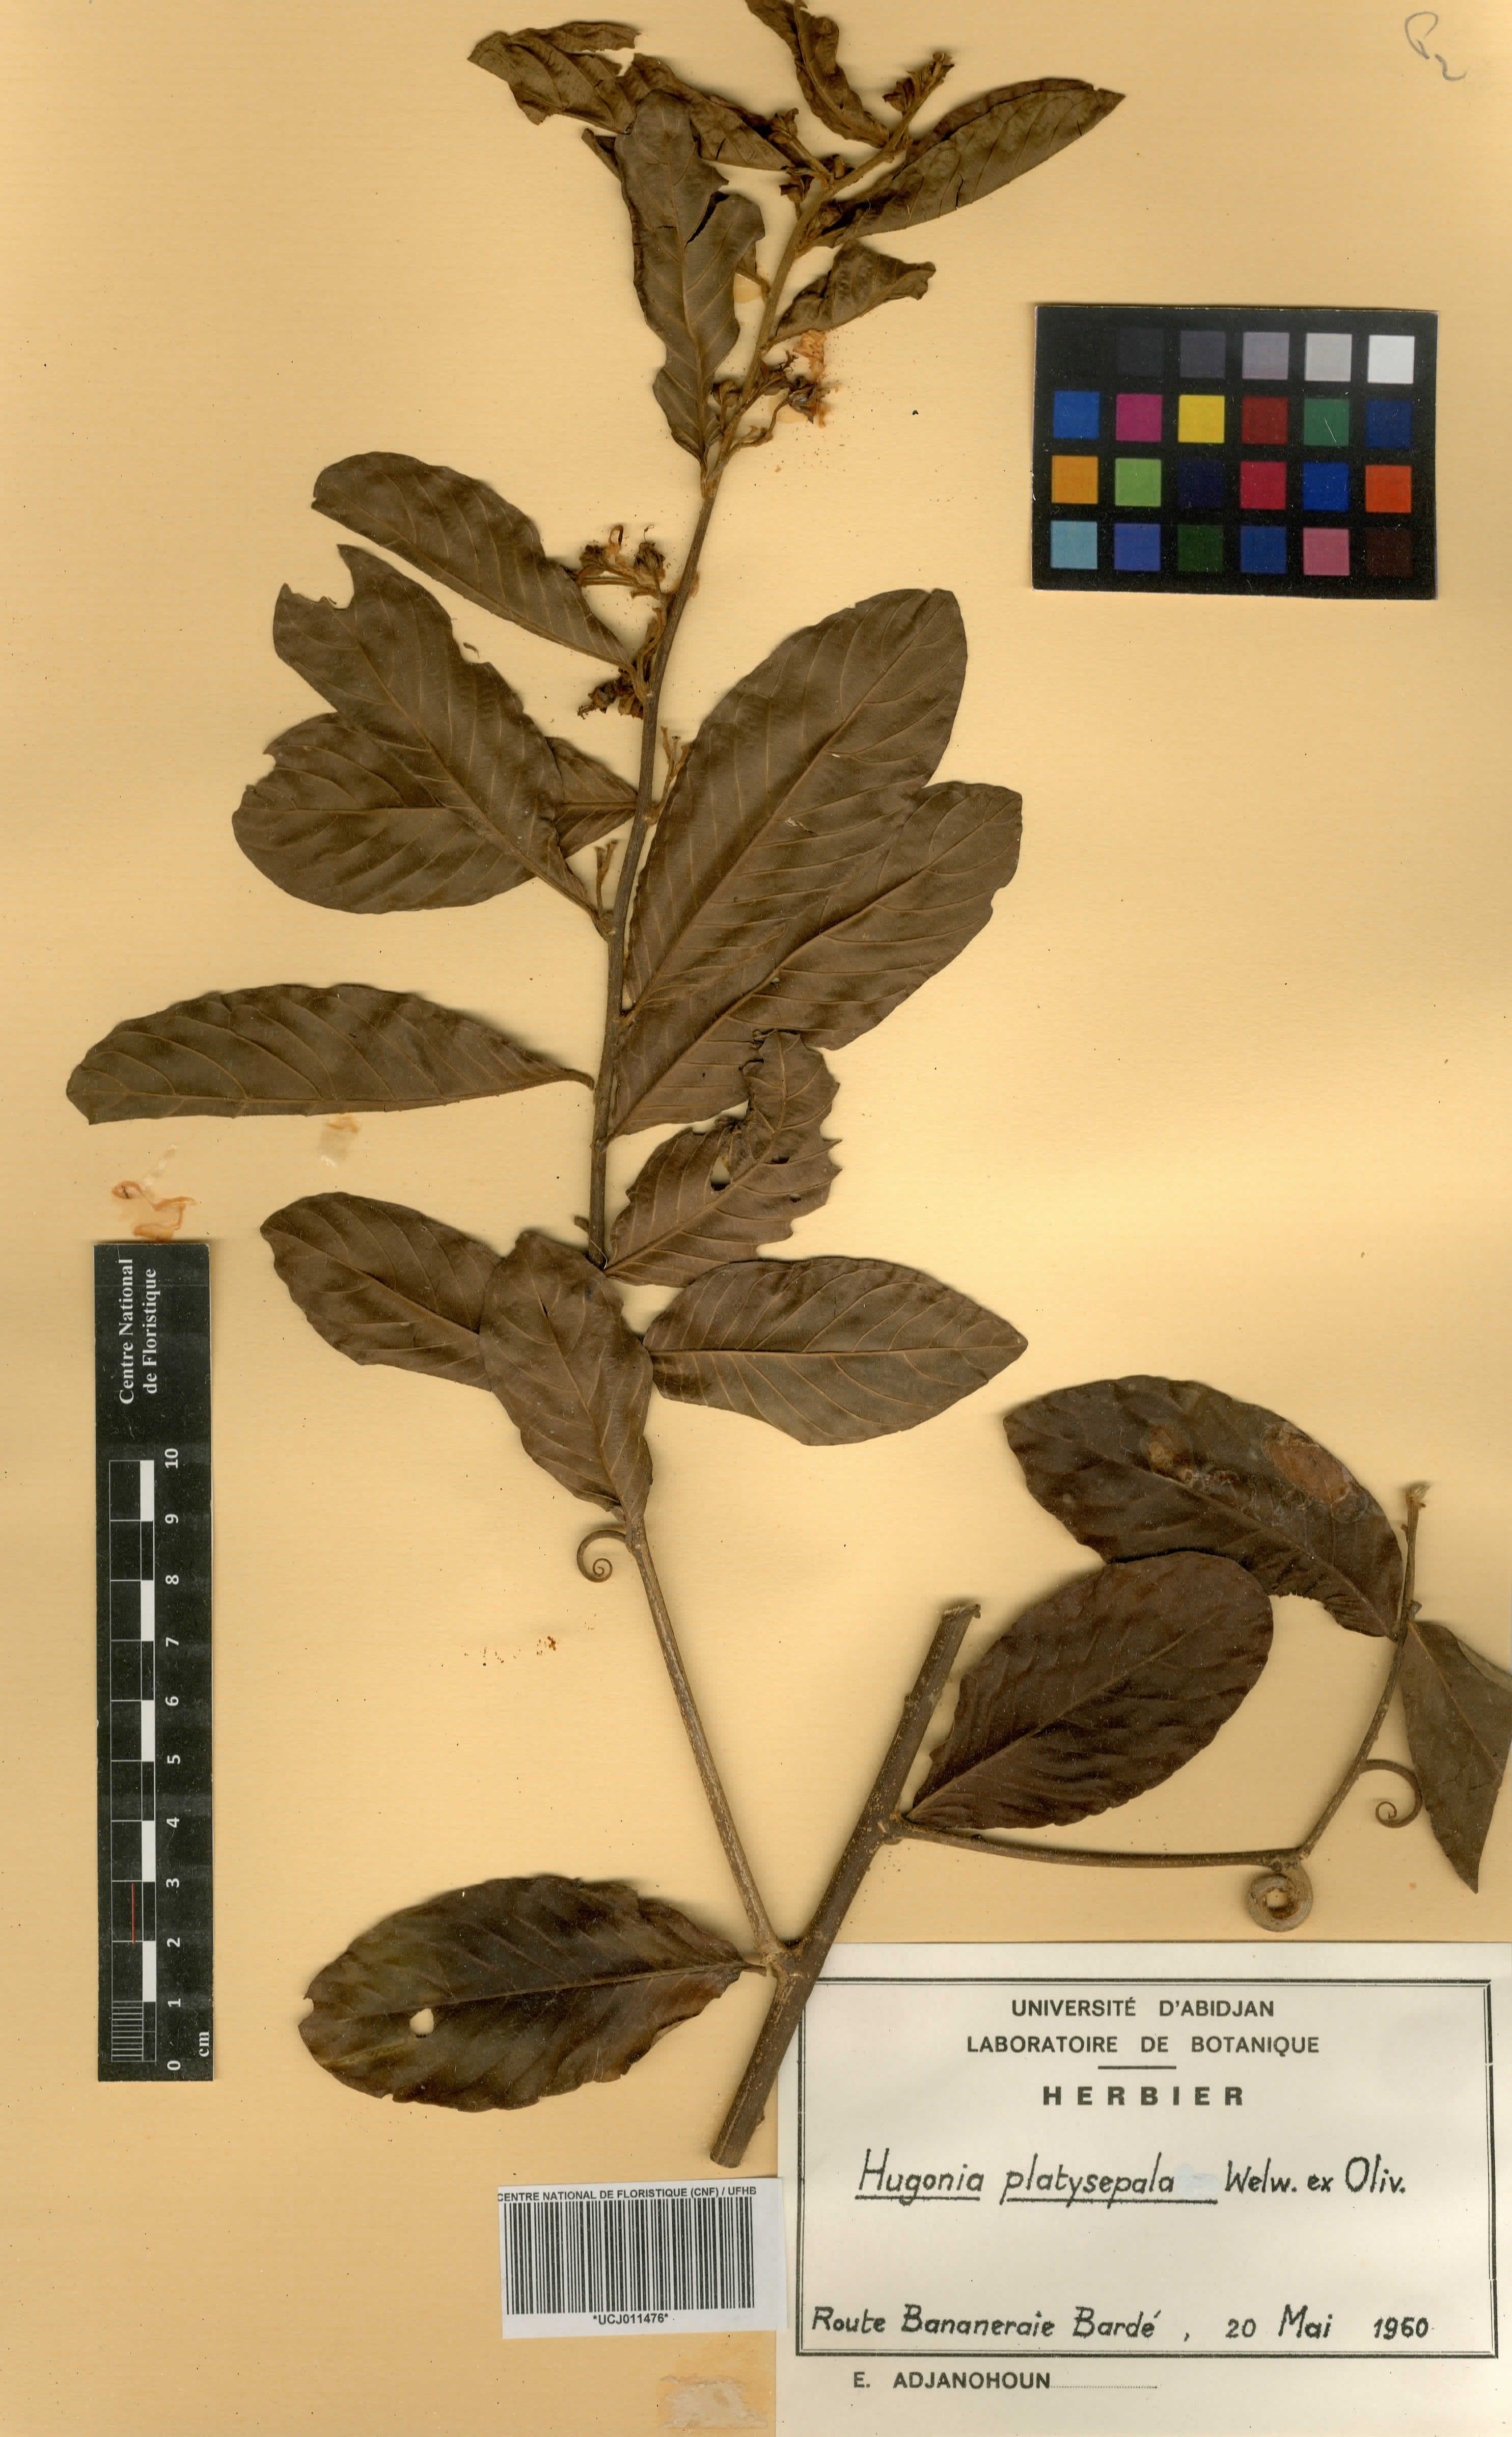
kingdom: Plantae
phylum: Tracheophyta
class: Magnoliopsida
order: Malpighiales
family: Linaceae
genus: Hugonia
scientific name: Hugonia platysepala
